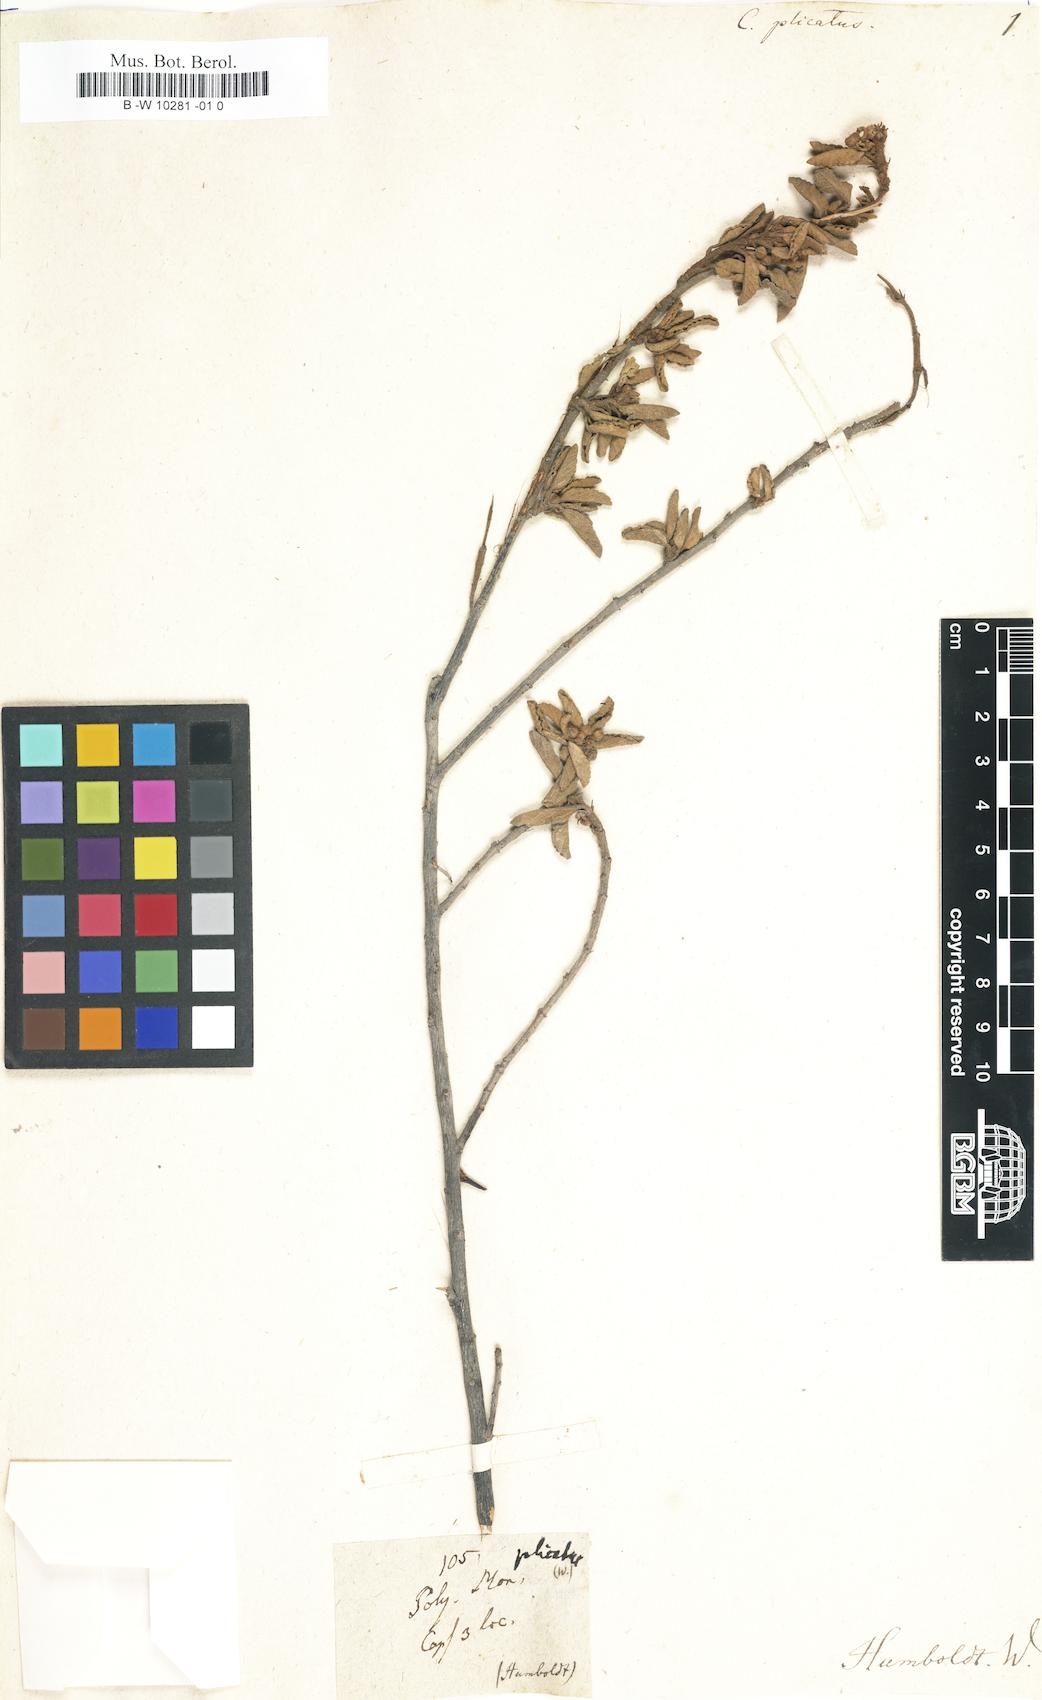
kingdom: Plantae
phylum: Tracheophyta
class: Magnoliopsida
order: Malvales
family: Malvaceae
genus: Corchorus
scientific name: Corchorus
